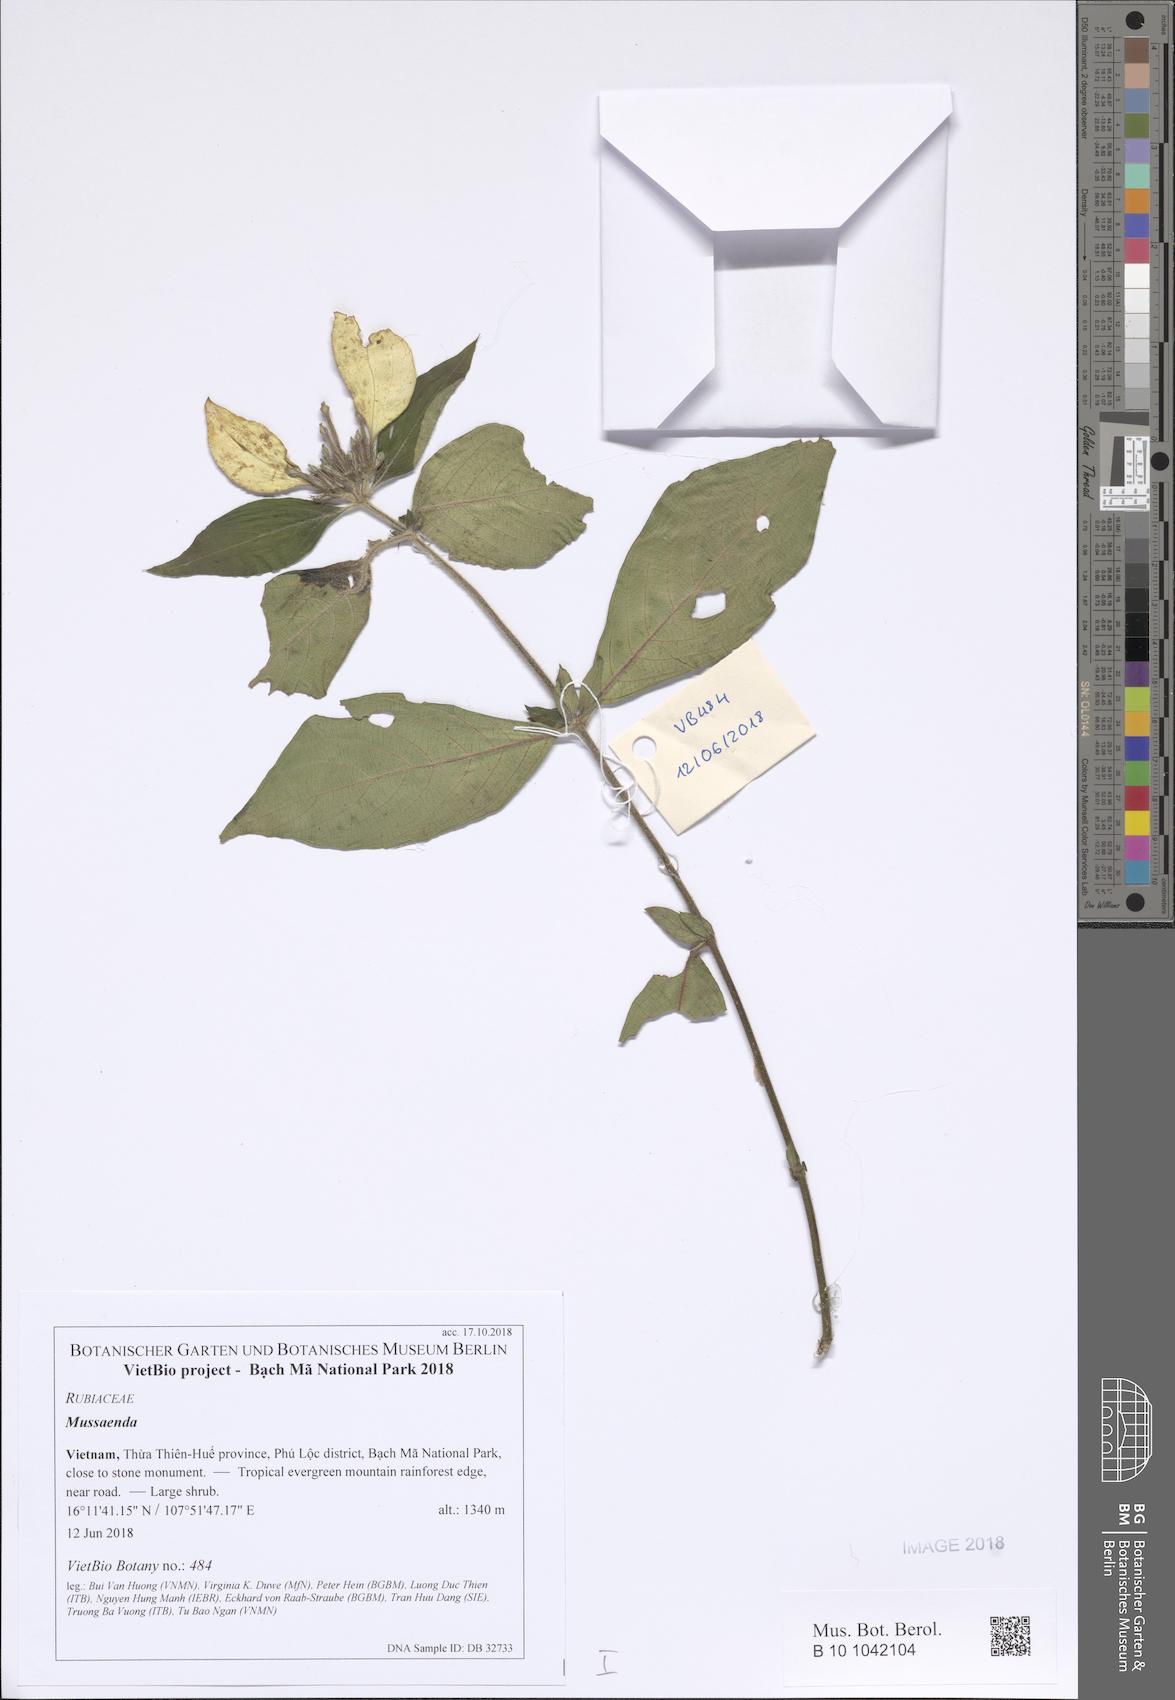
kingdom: Plantae
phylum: Tracheophyta
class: Magnoliopsida
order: Gentianales
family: Rubiaceae
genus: Mussaenda
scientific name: Mussaenda
